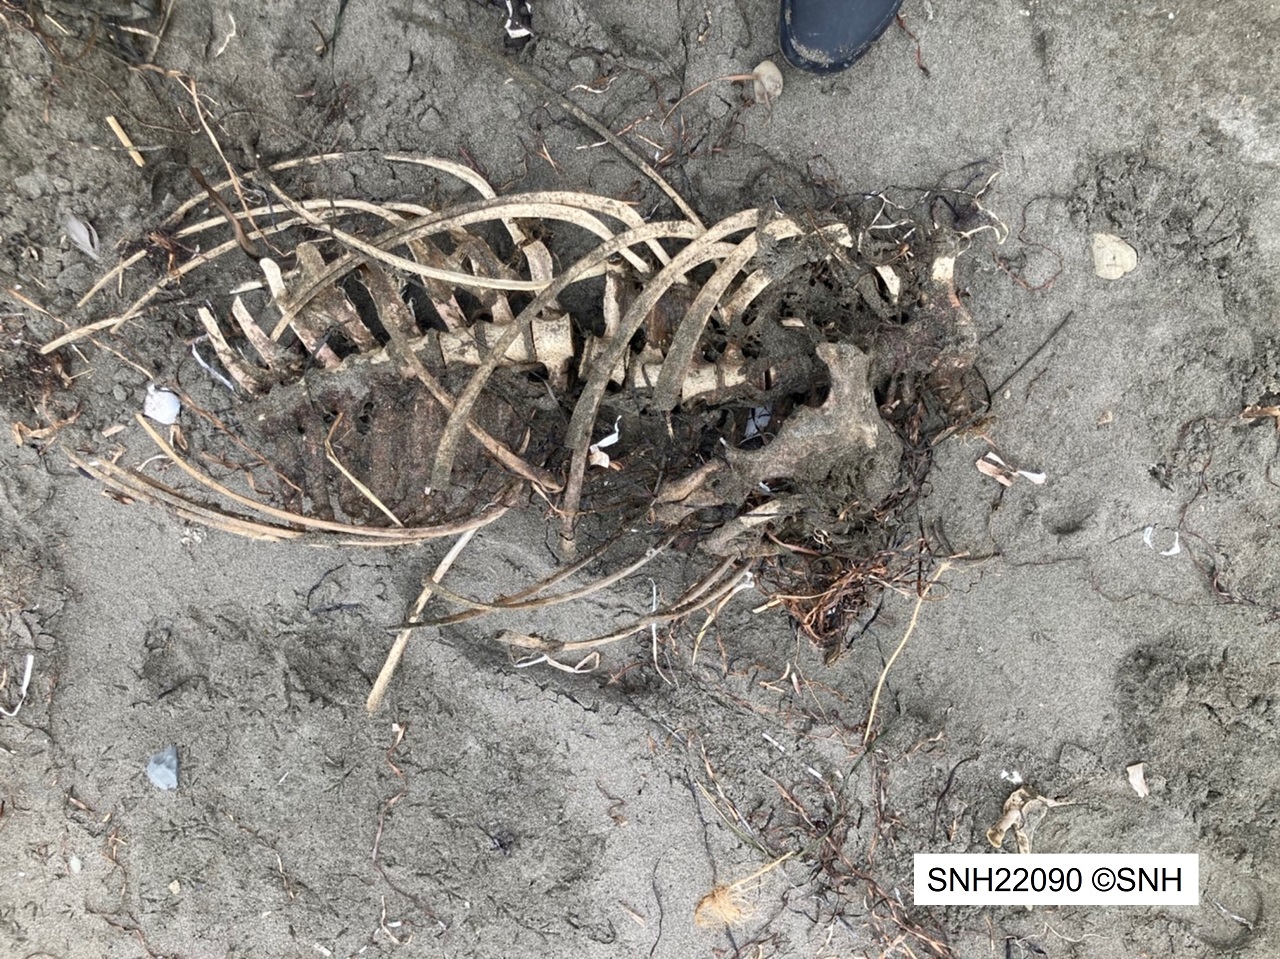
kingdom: Animalia
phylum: Chordata
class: Mammalia
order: Cetacea
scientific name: Cetacea
